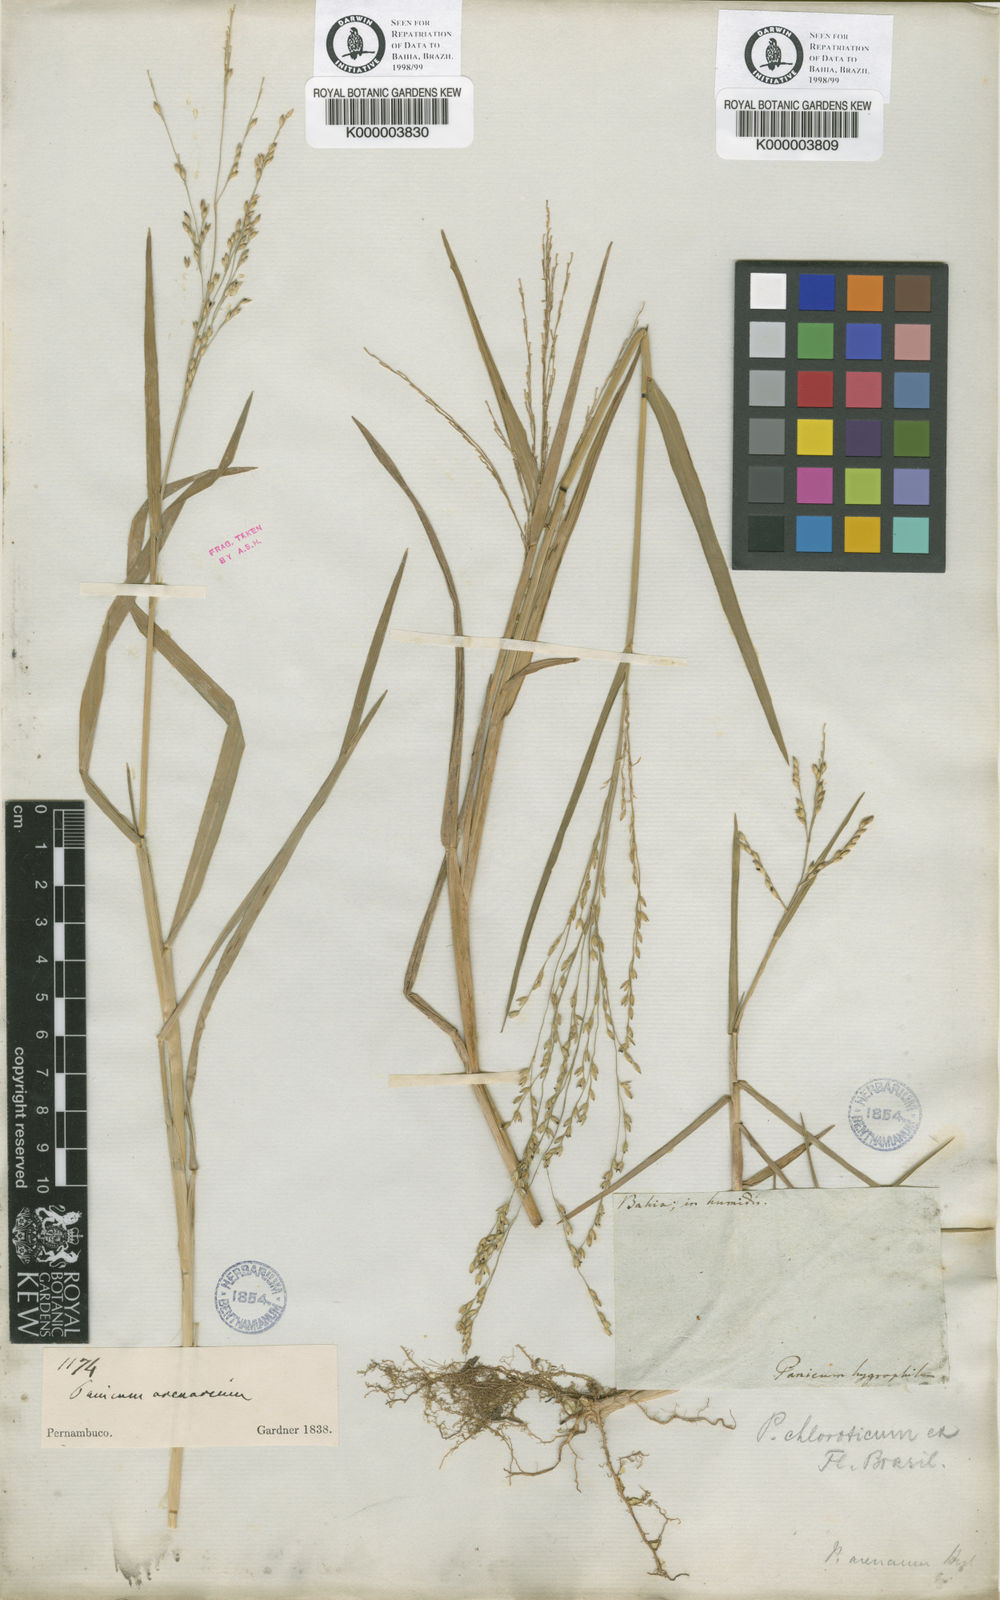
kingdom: Plantae
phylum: Tracheophyta
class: Liliopsida
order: Poales
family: Poaceae
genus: Panicum
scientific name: Panicum dichotomiflorum
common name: Autumn millet
